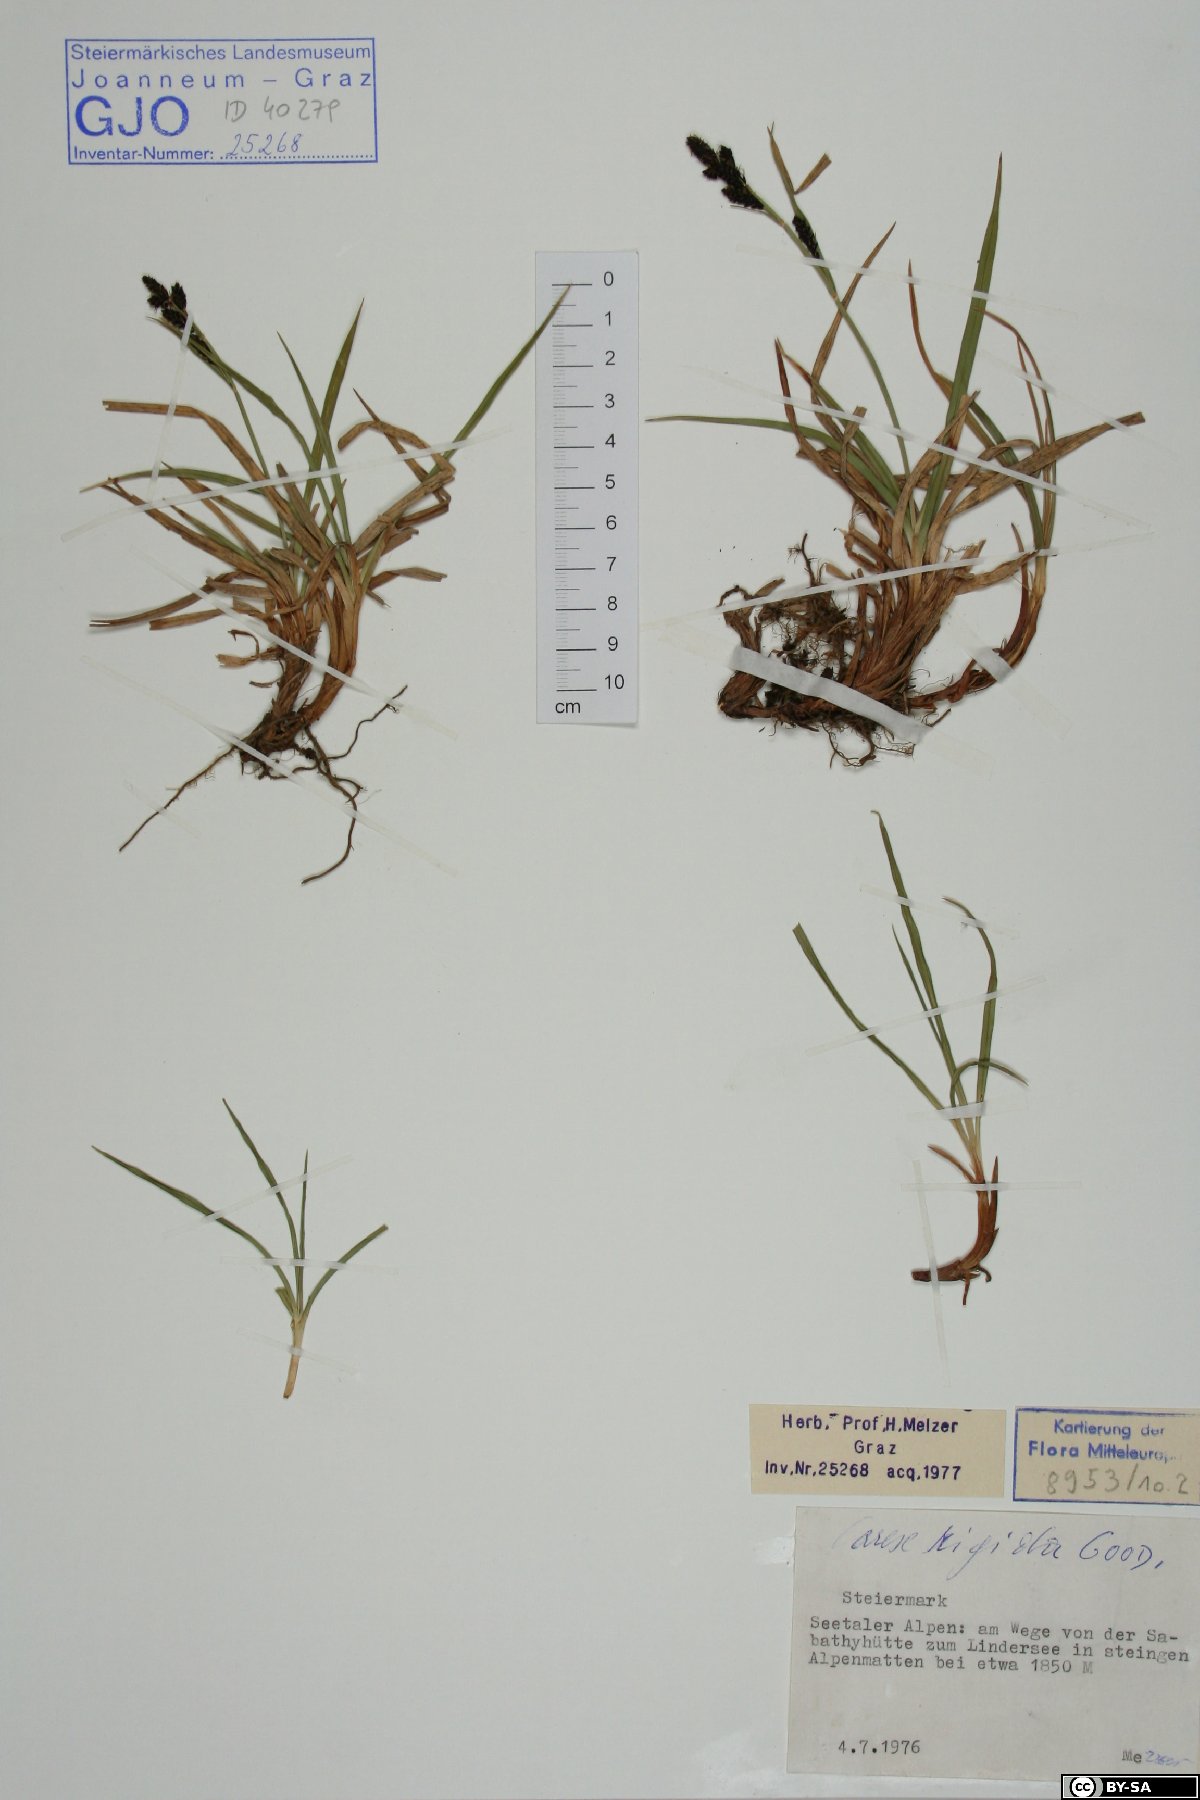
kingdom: Plantae
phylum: Tracheophyta
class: Liliopsida
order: Poales
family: Cyperaceae
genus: Carex
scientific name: Carex dacica
